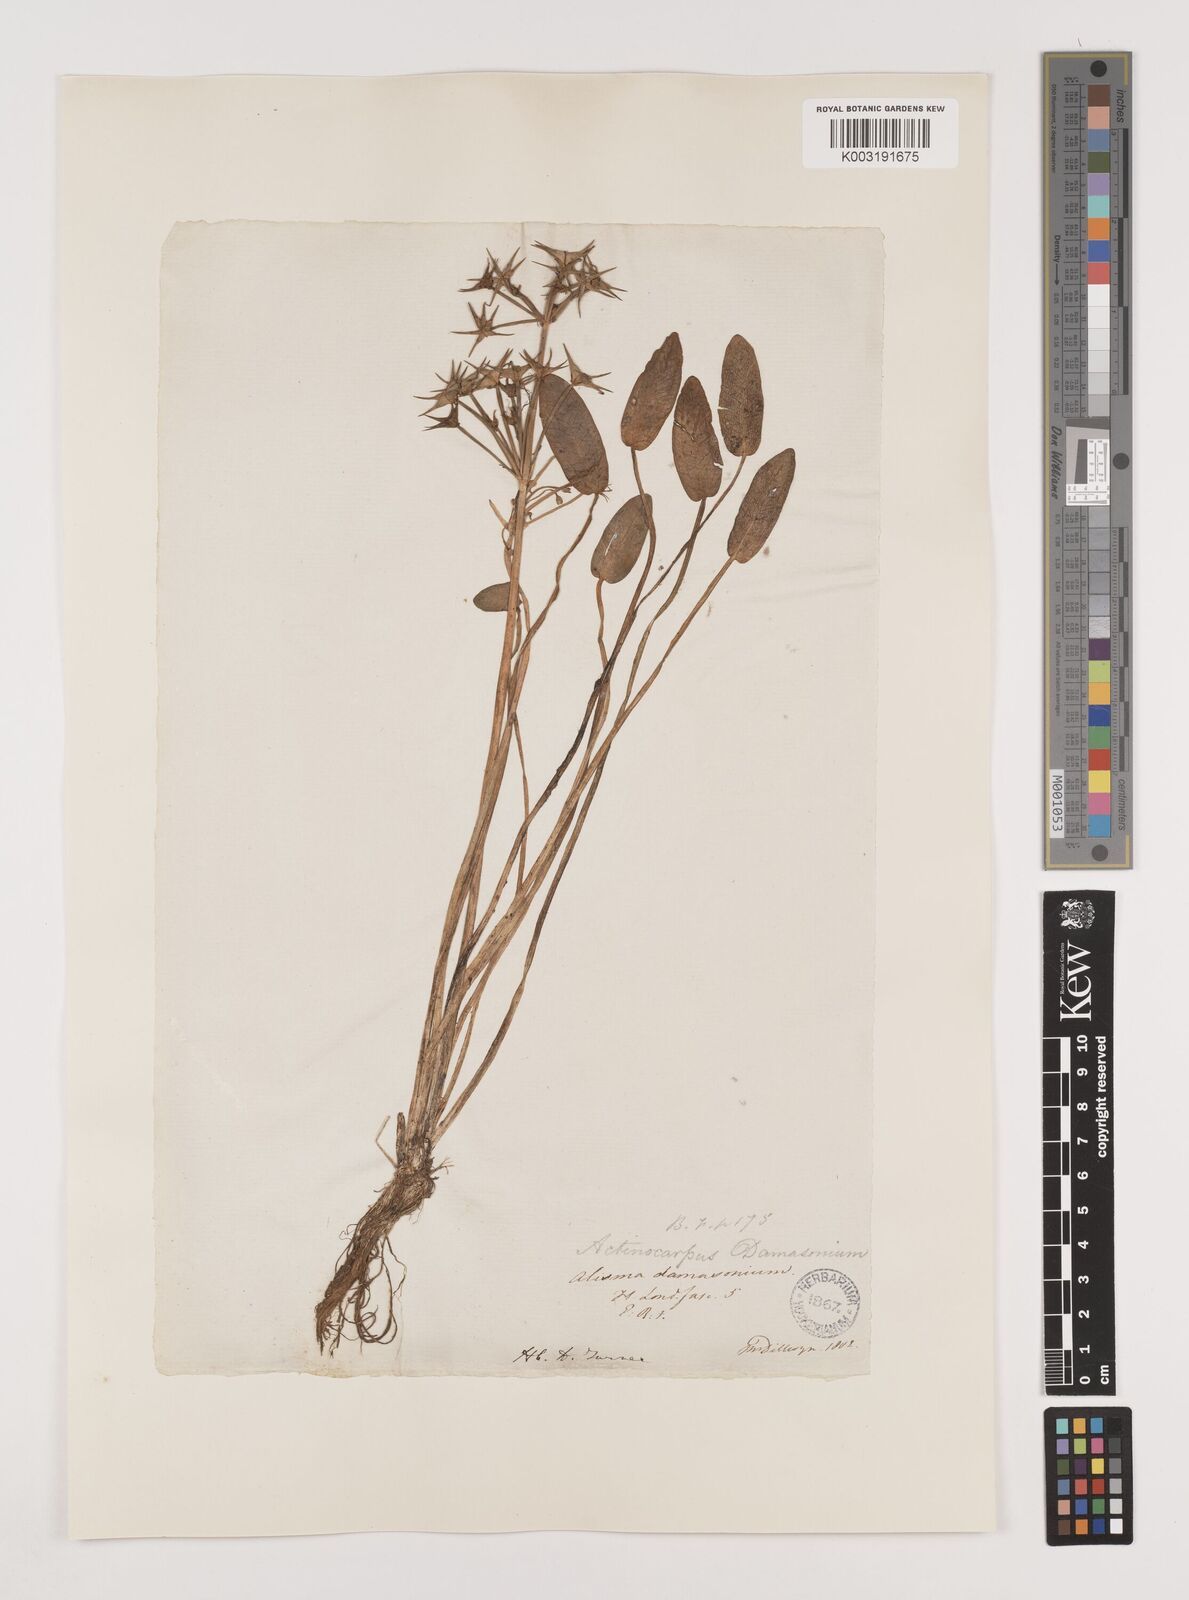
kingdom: Plantae
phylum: Tracheophyta
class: Liliopsida
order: Alismatales
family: Alismataceae
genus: Damasonium
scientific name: Damasonium alisma
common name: Starfruit
